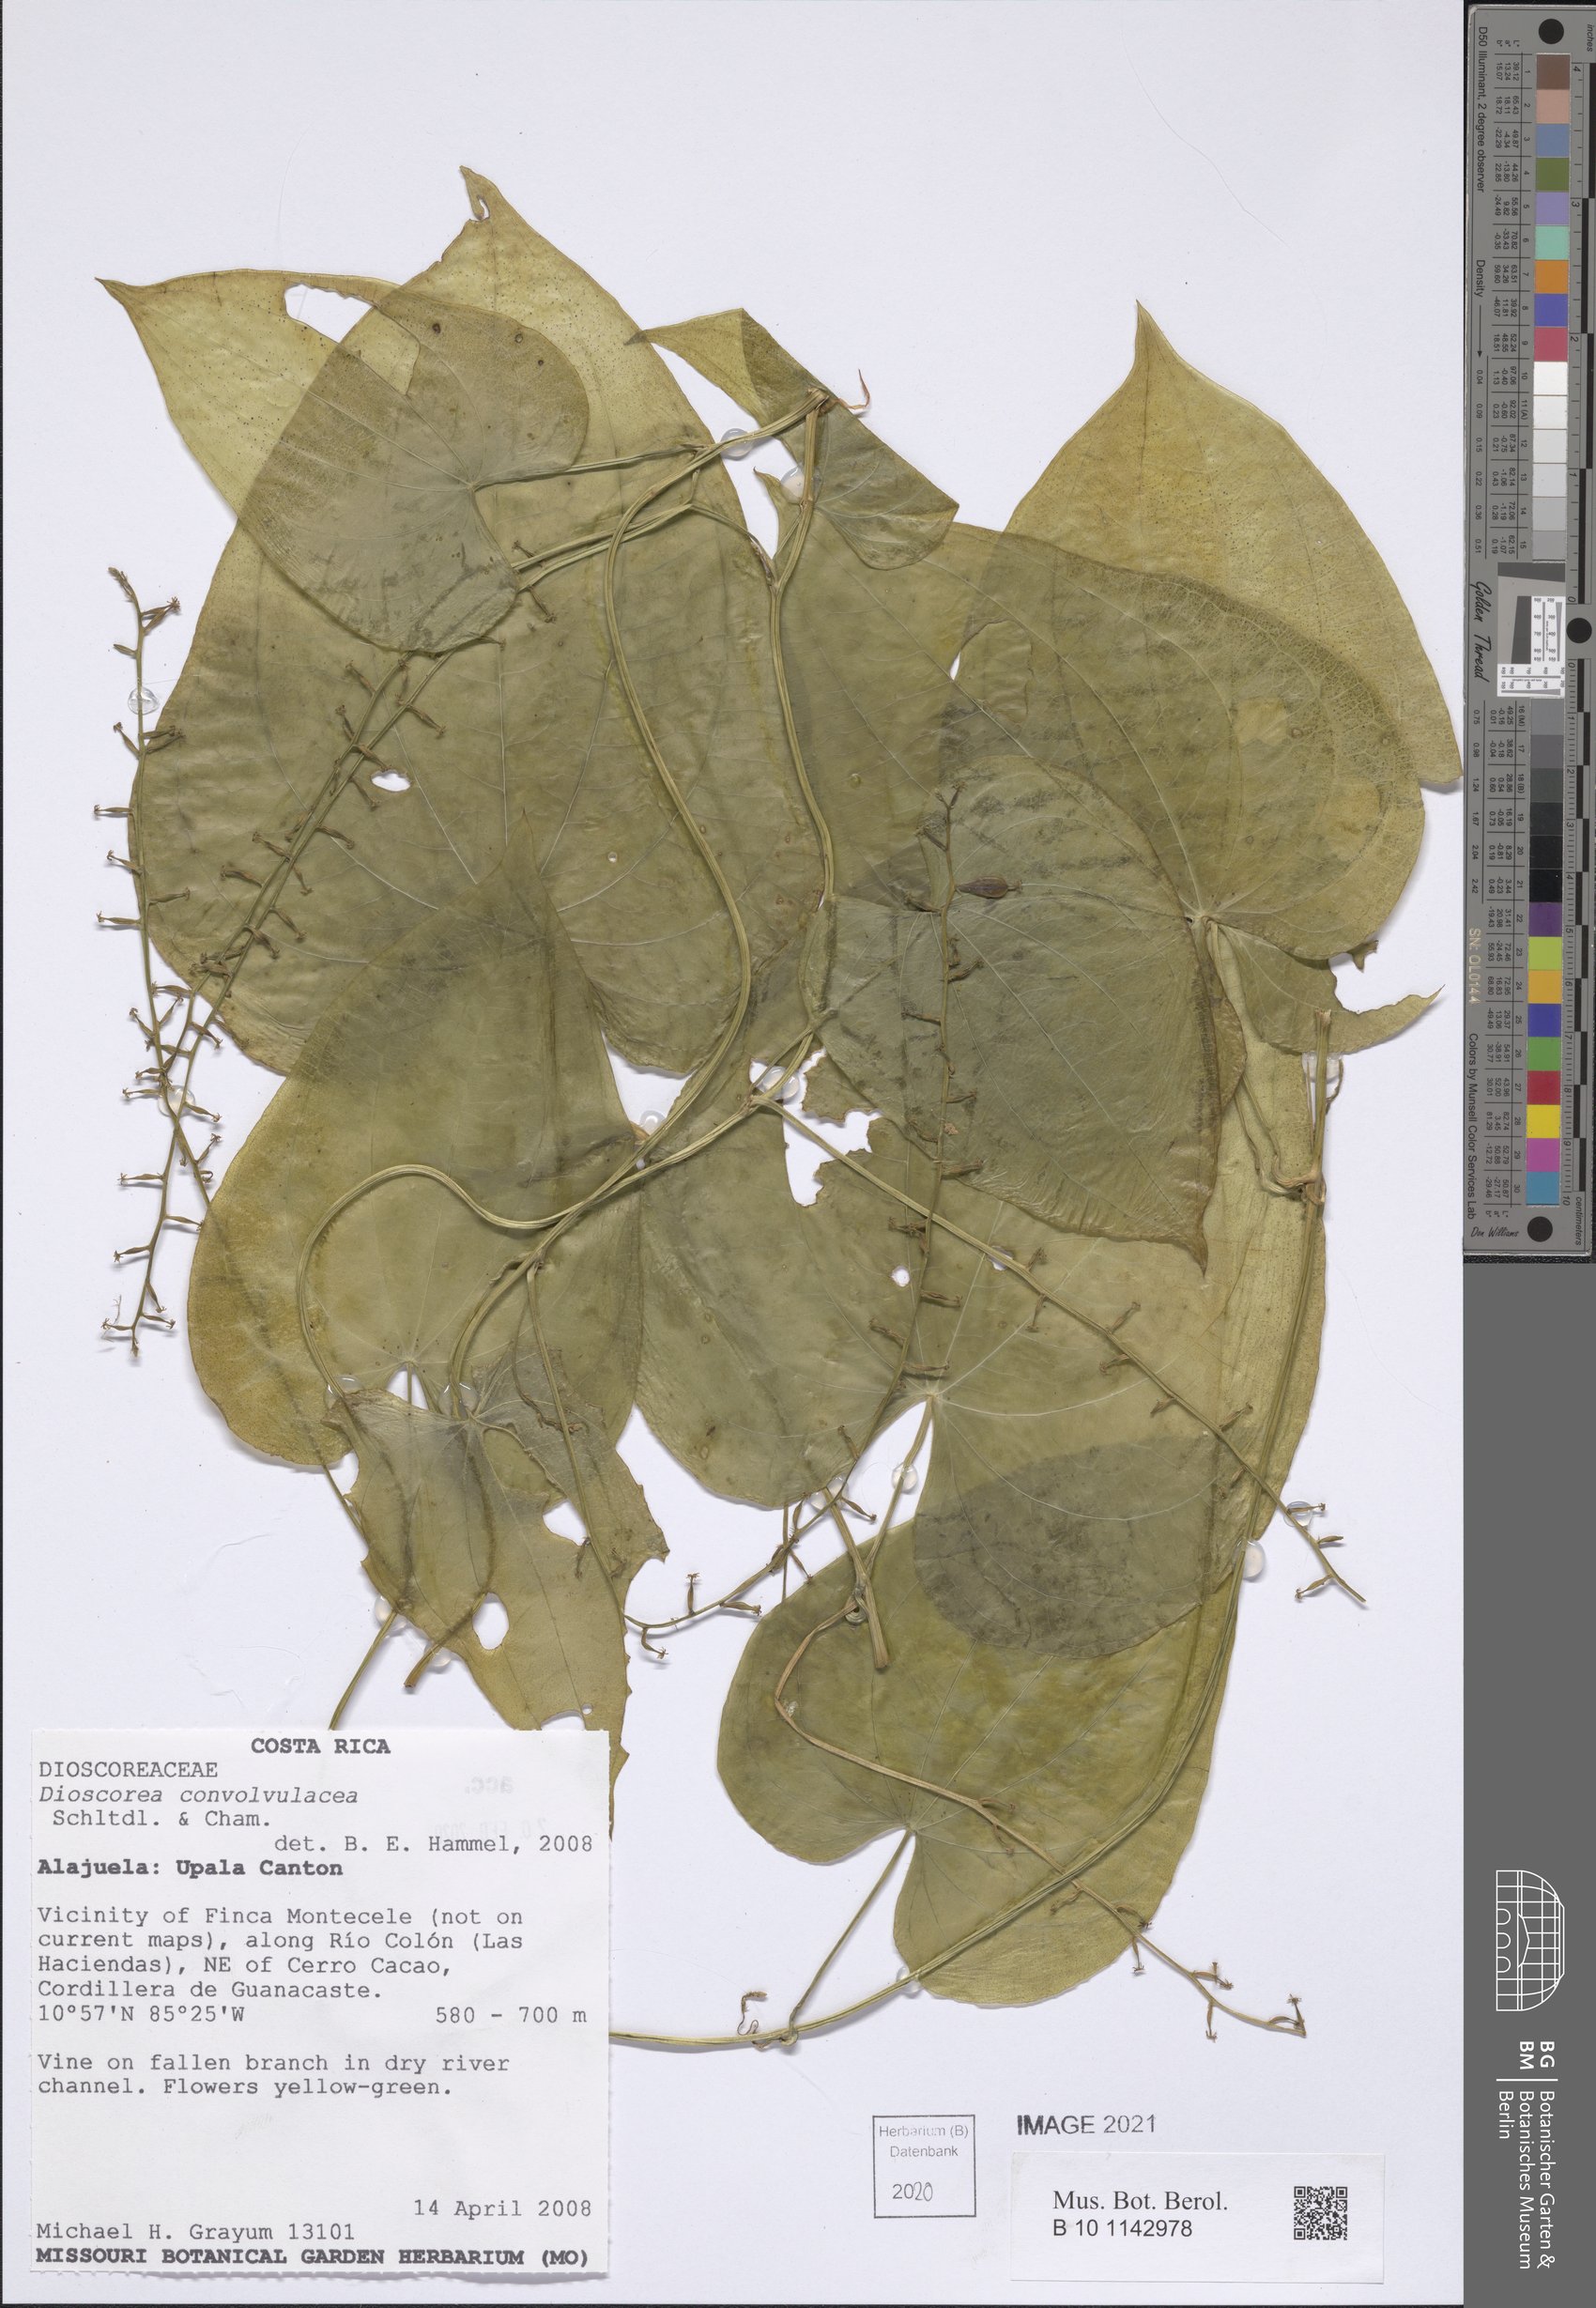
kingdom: Plantae
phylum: Tracheophyta
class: Liliopsida
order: Dioscoreales
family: Dioscoreaceae
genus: Dioscorea
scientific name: Dioscorea convolvulacea
